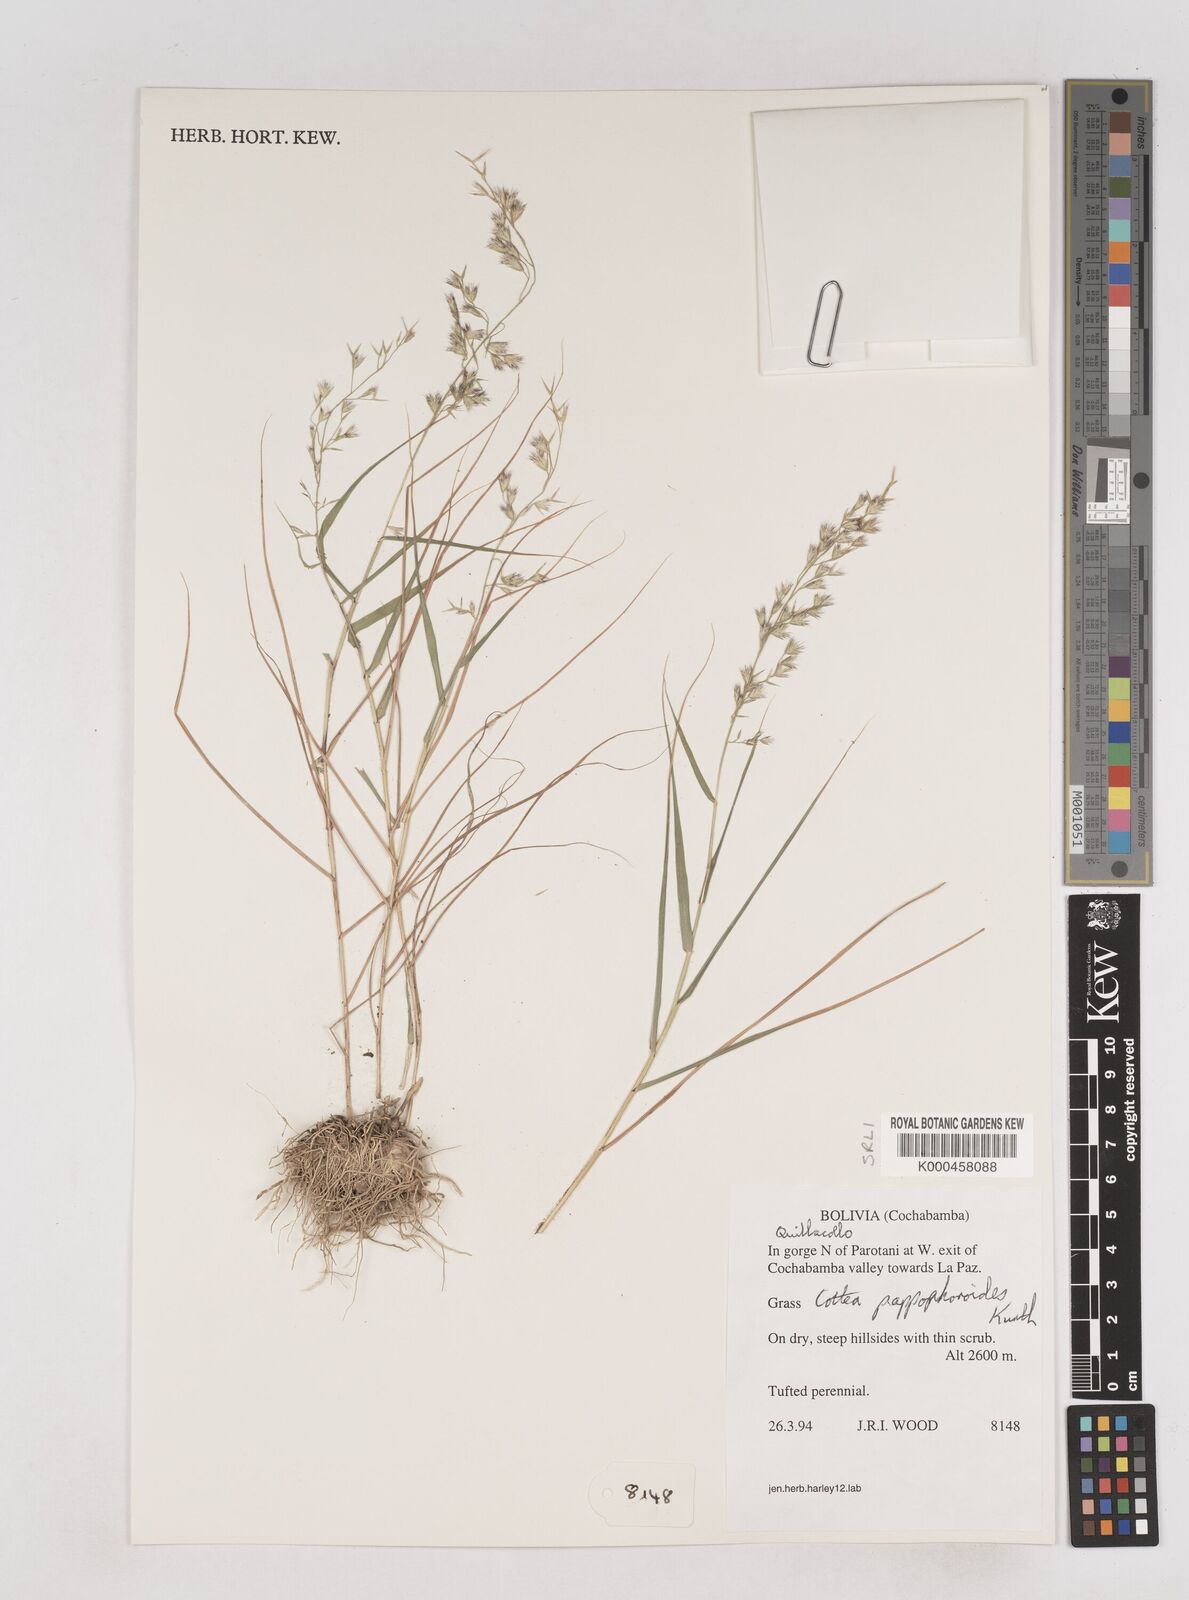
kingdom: Plantae
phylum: Tracheophyta
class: Liliopsida
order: Poales
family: Poaceae
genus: Cottea
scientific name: Cottea
